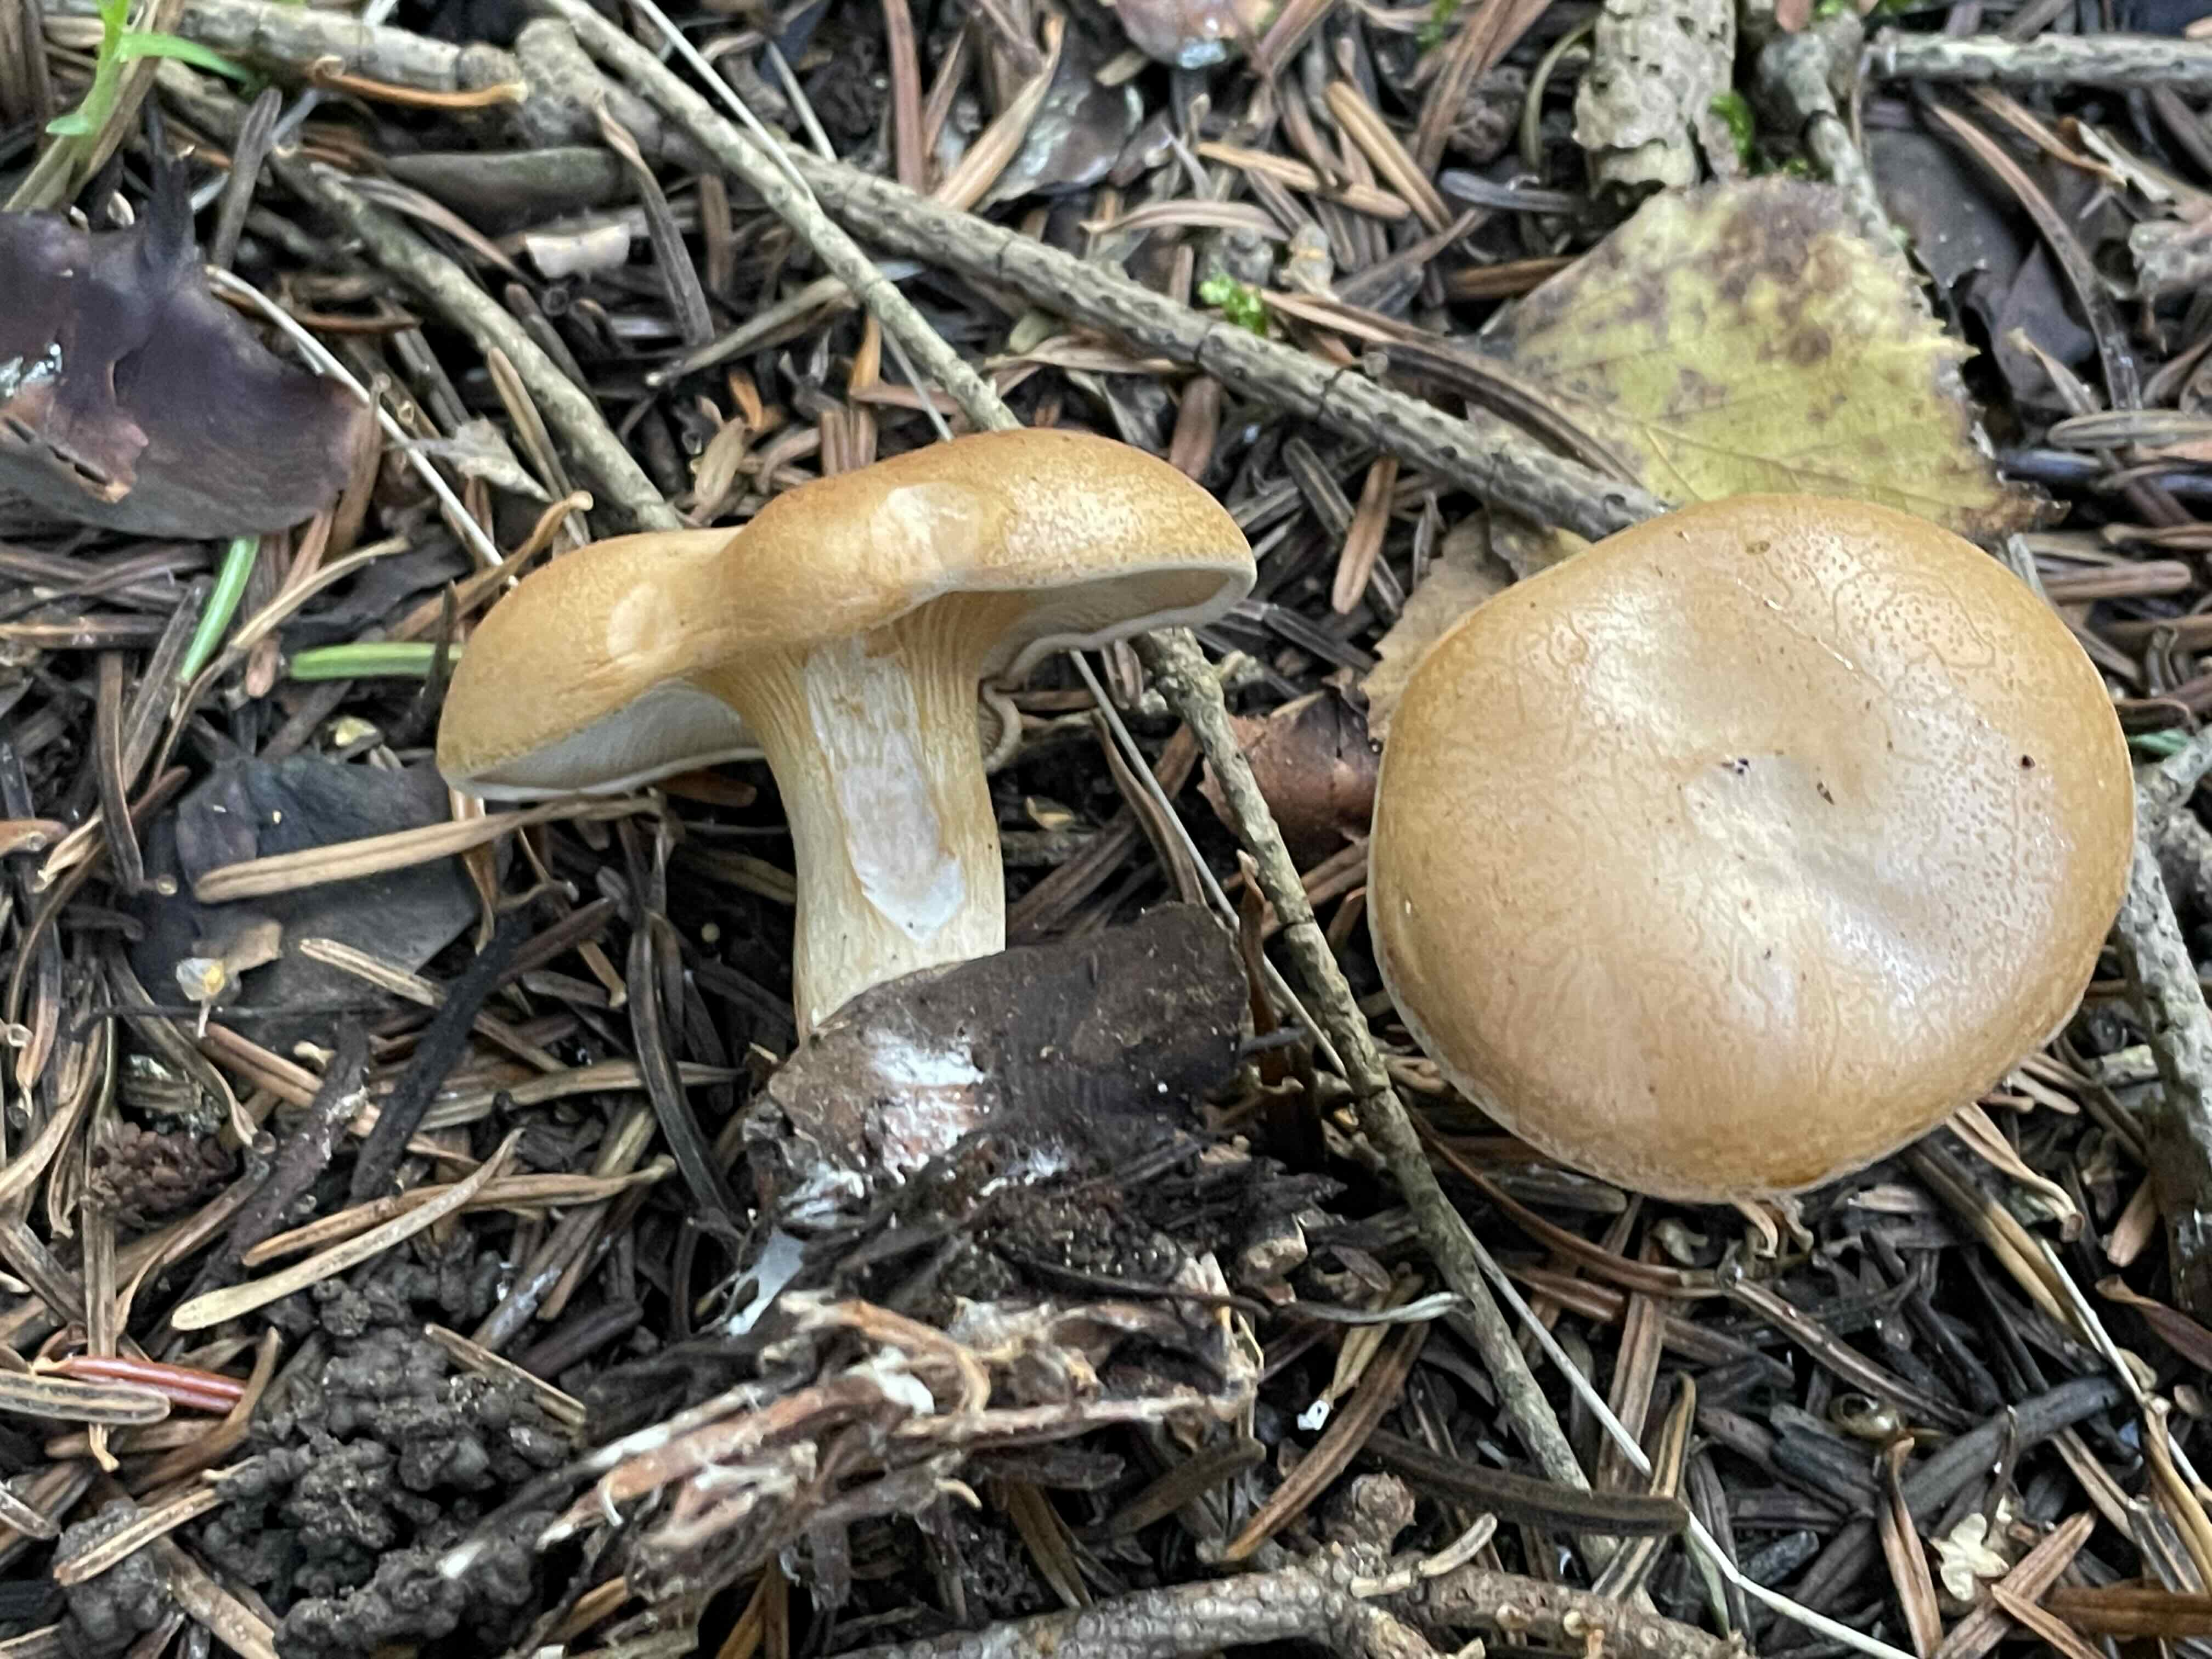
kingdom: Fungi
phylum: Basidiomycota
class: Agaricomycetes
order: Agaricales
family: Tricholomataceae
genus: Paralepista
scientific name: Paralepista gilva
